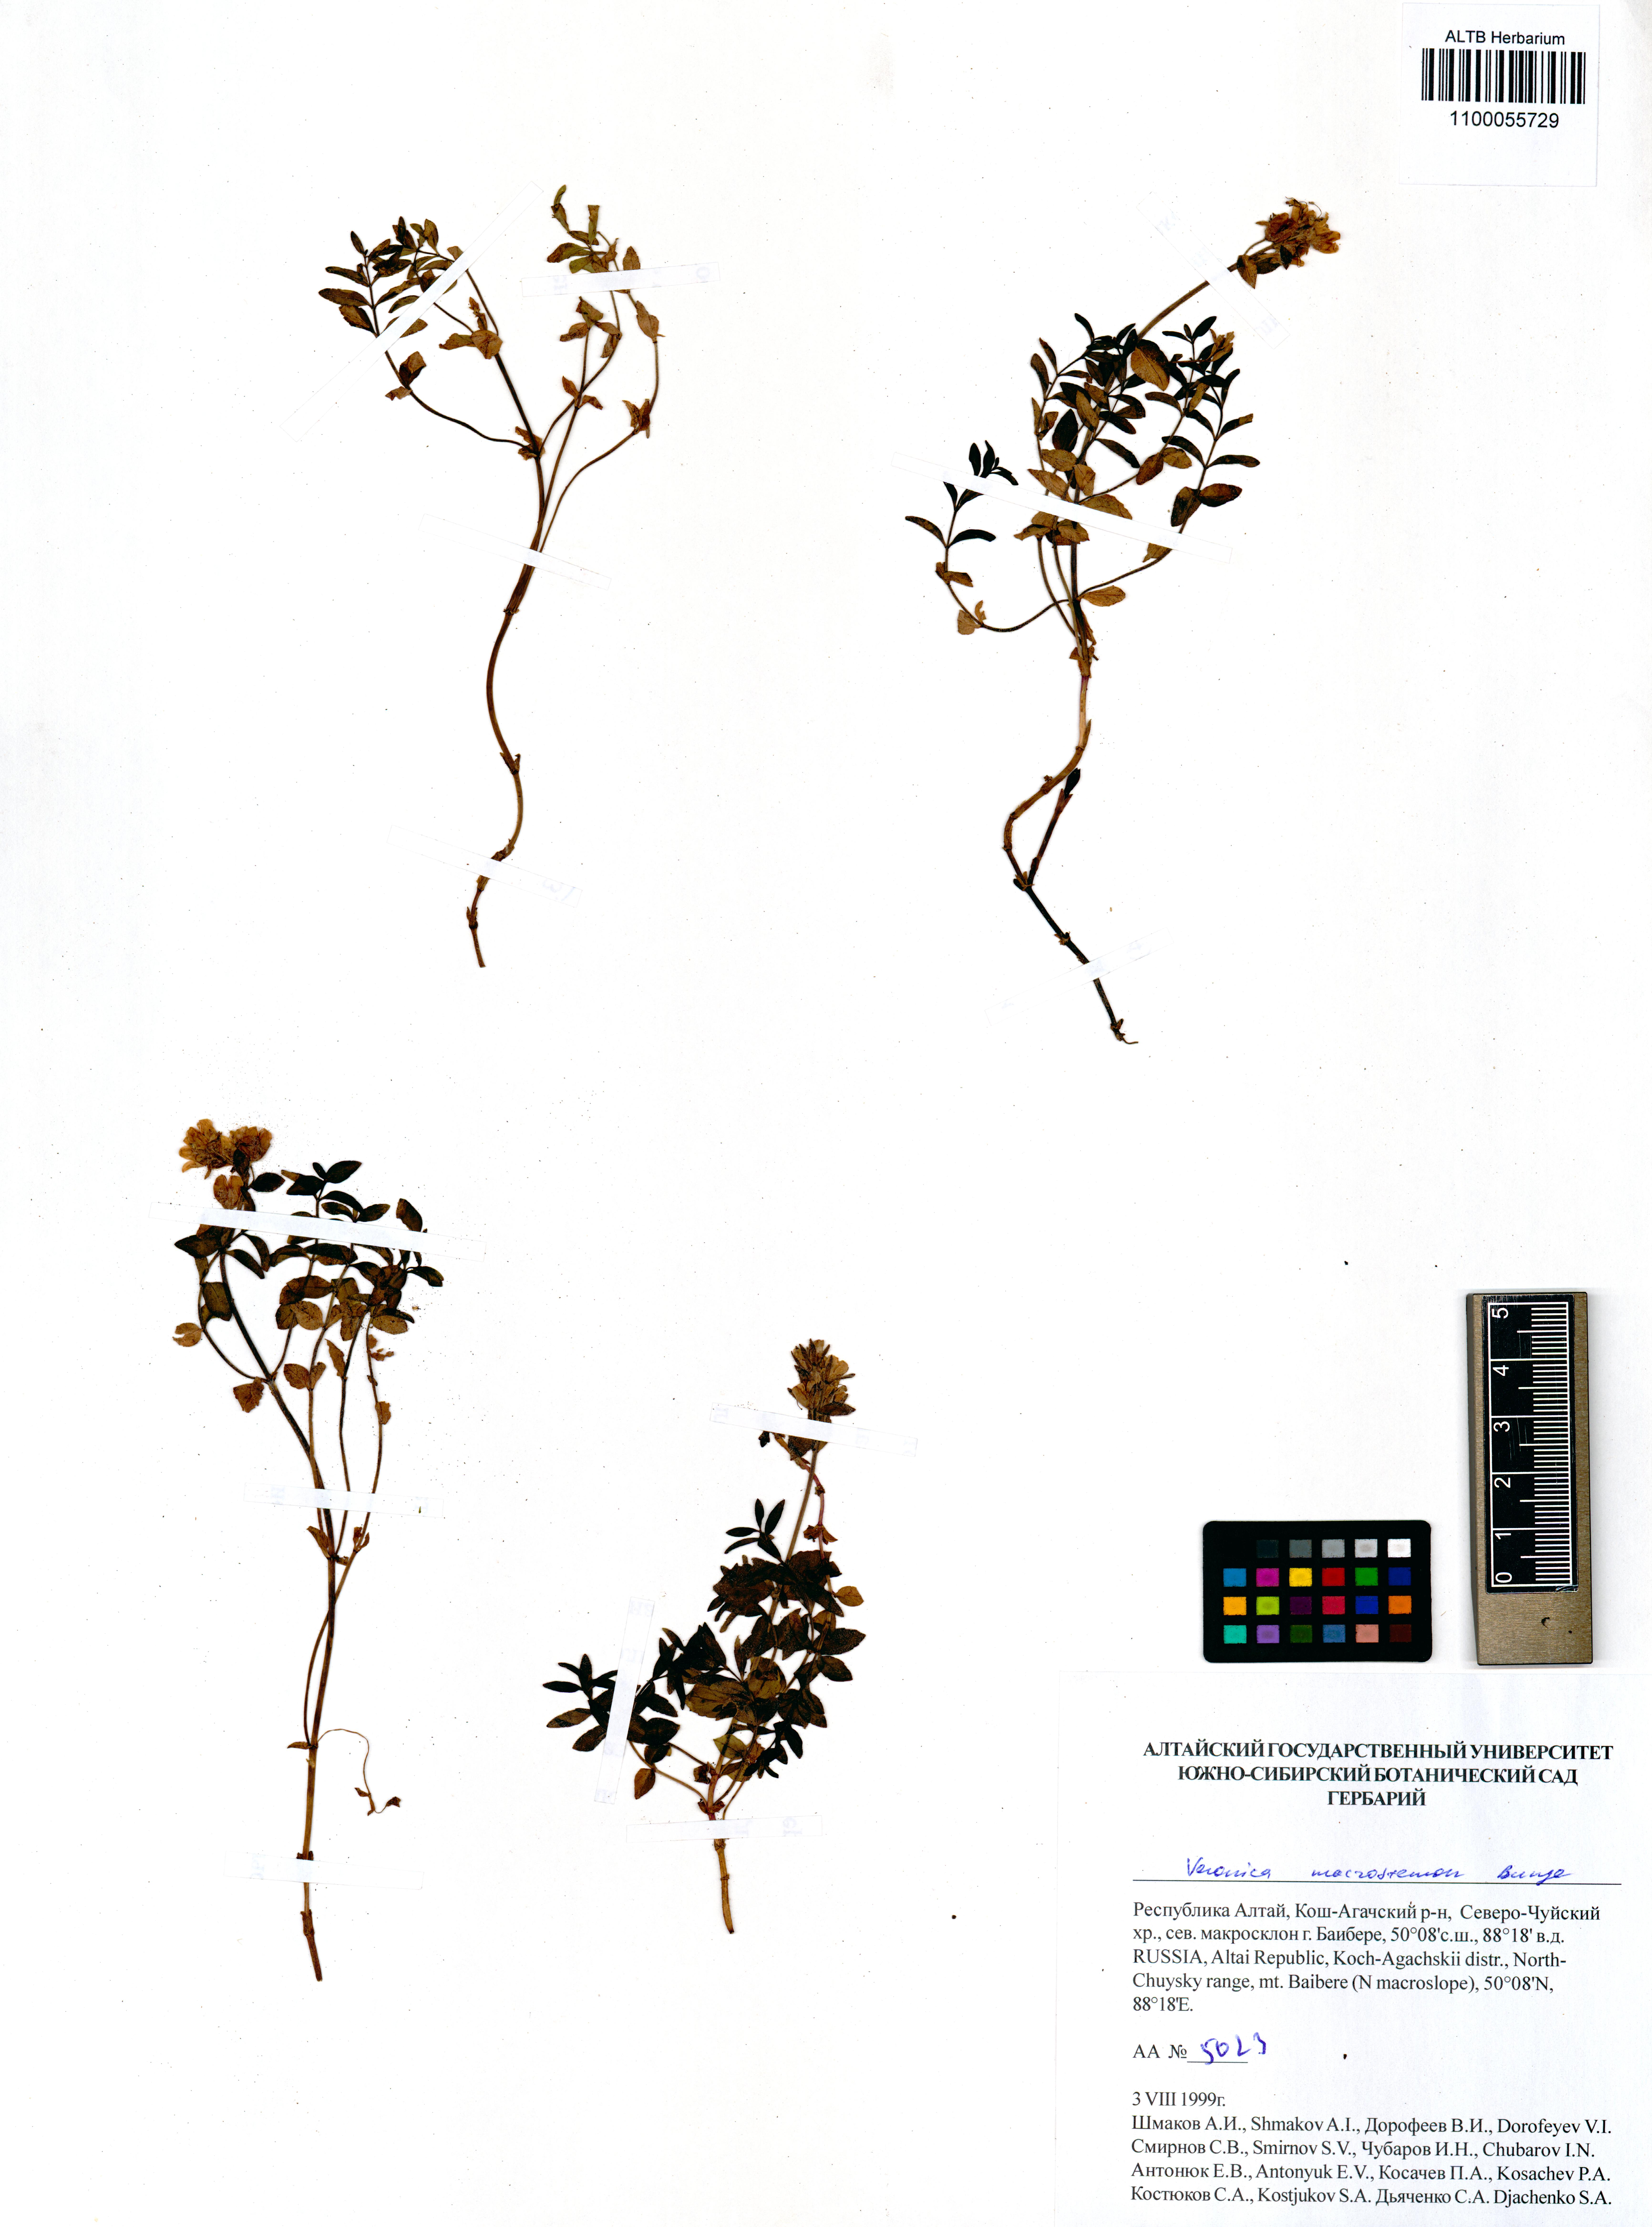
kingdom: Plantae
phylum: Tracheophyta
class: Magnoliopsida
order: Lamiales
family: Plantaginaceae
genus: Veronica
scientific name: Veronica macrostemon
